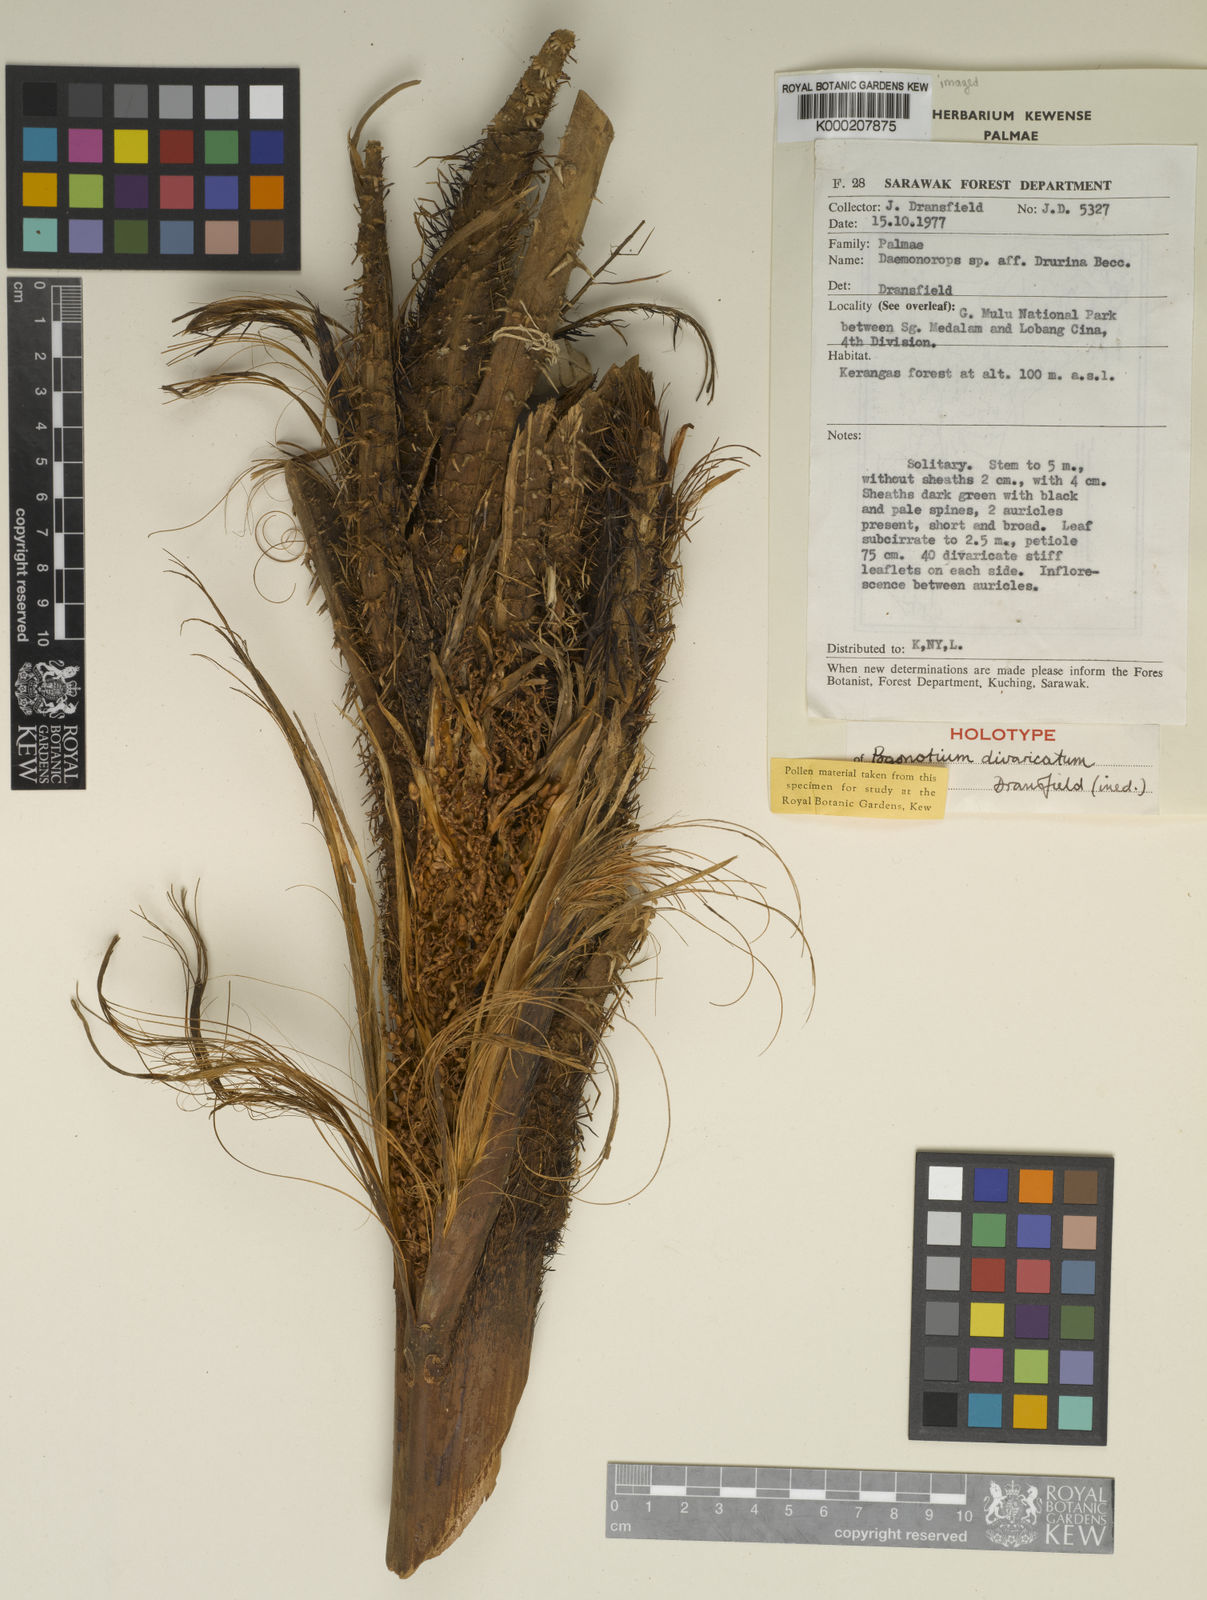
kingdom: Plantae
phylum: Tracheophyta
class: Liliopsida
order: Arecales
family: Arecaceae
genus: Calamus
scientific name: Calamus pogonotium
